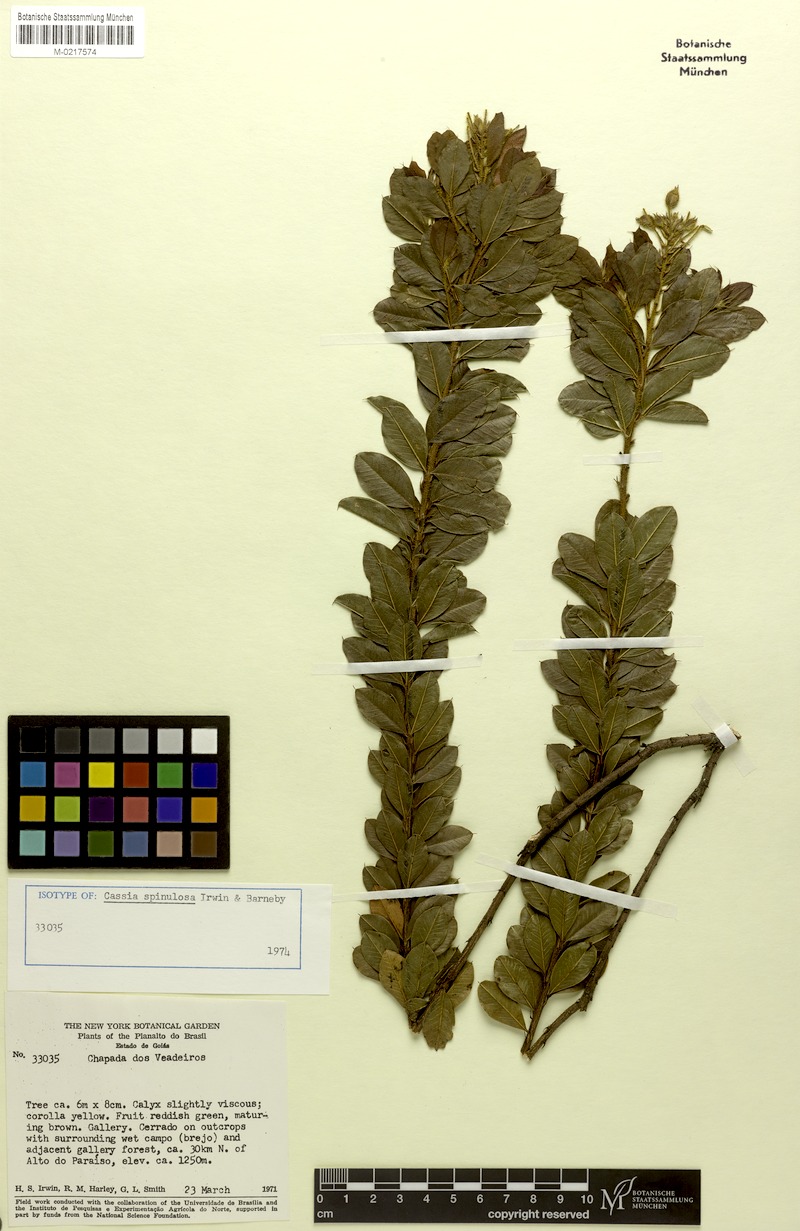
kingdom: Plantae
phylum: Tracheophyta
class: Magnoliopsida
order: Fabales
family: Fabaceae
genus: Chamaecrista
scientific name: Chamaecrista spinulosa
